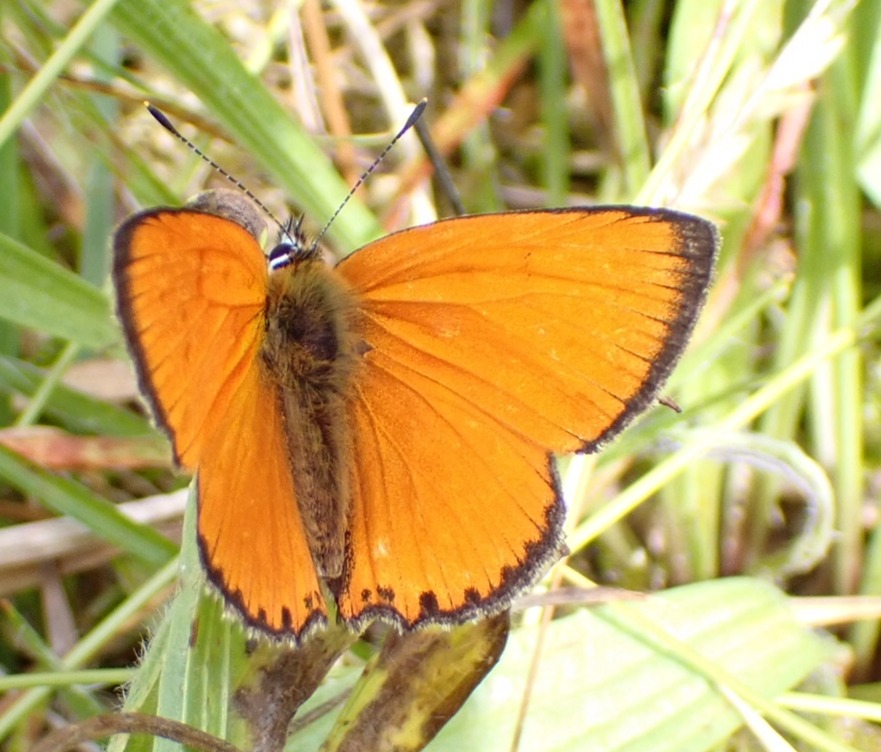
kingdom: Animalia
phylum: Arthropoda
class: Insecta
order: Lepidoptera
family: Lycaenidae
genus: Lycaena
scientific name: Lycaena virgaureae
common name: Dukatsommerfugl
